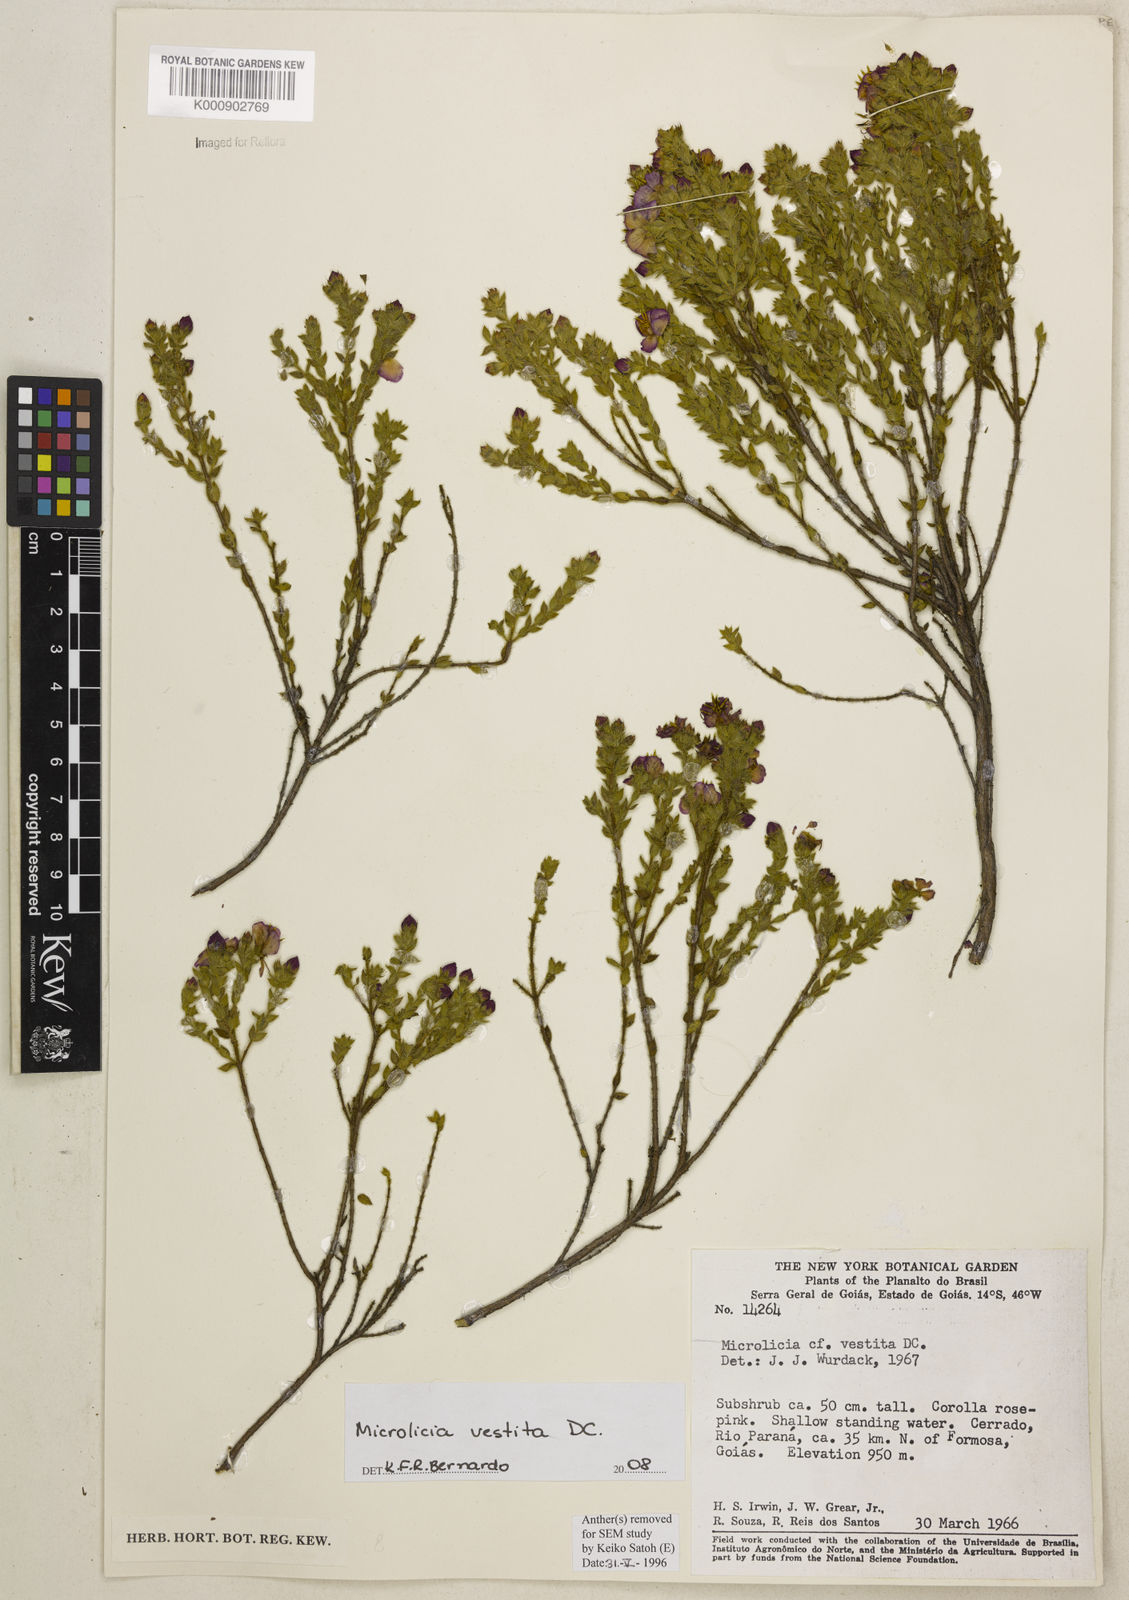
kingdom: Plantae
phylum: Tracheophyta
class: Magnoliopsida
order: Myrtales
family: Melastomataceae
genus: Microlicia
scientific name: Microlicia vestita
